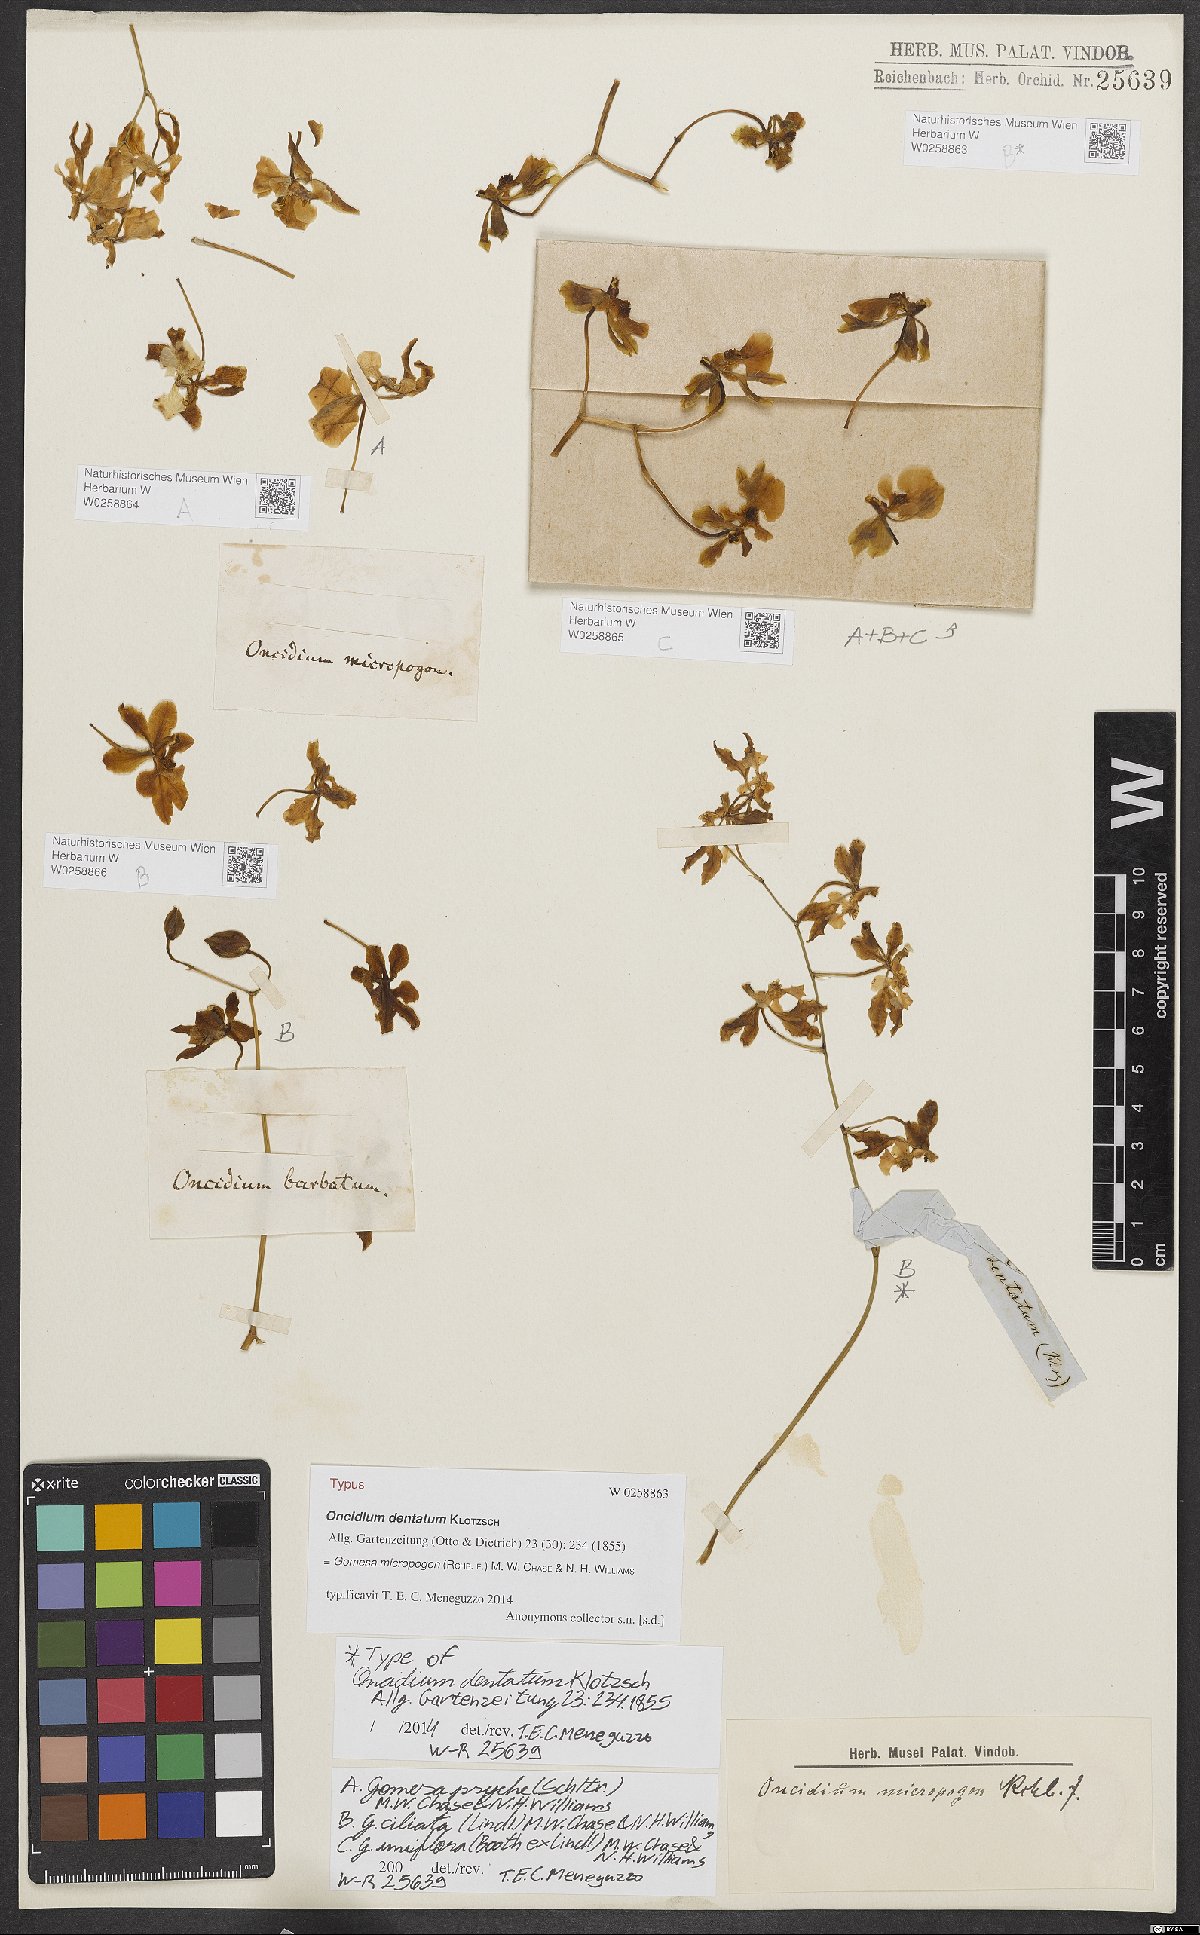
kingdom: Plantae
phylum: Tracheophyta
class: Liliopsida
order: Asparagales
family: Orchidaceae
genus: Gomesa
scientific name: Gomesa ciliata
